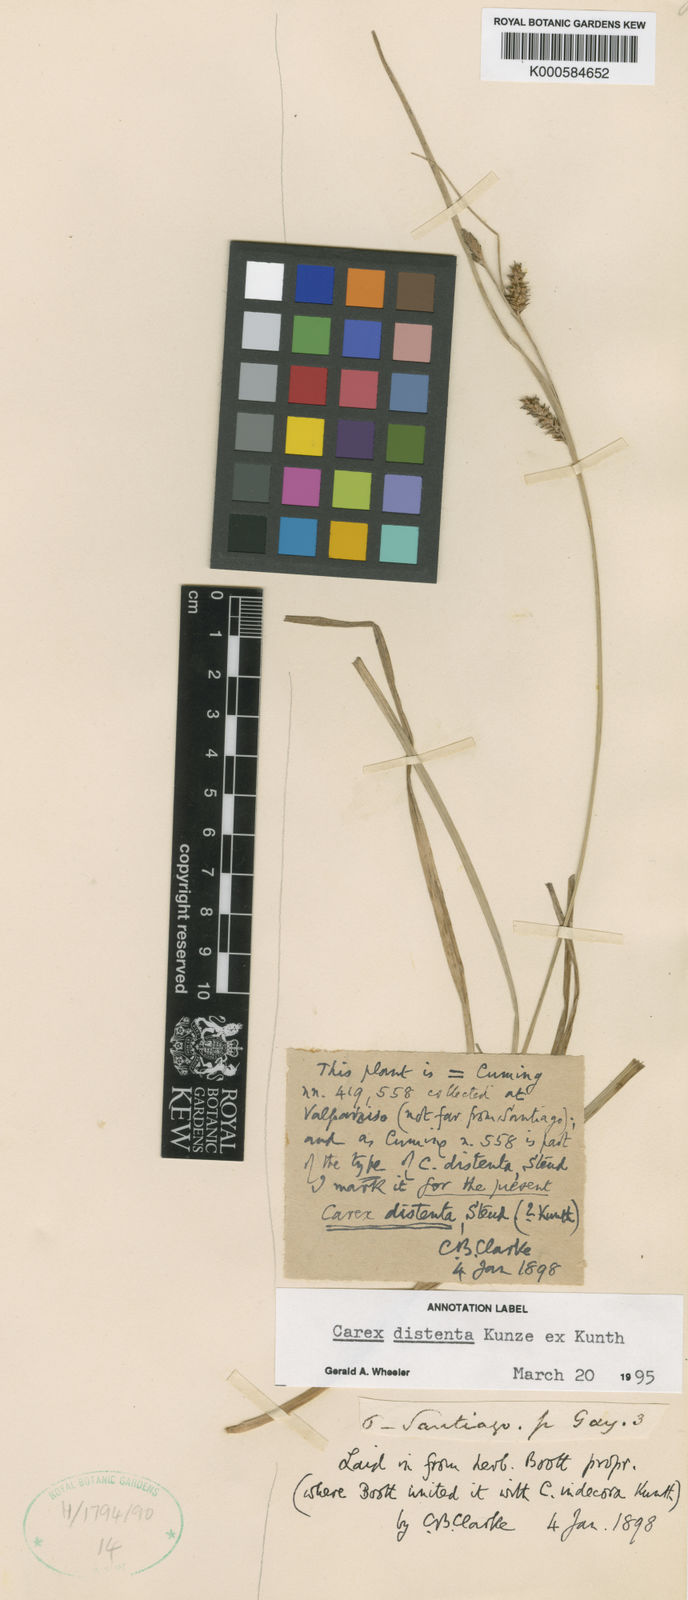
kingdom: Plantae
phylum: Tracheophyta
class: Liliopsida
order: Poales
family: Cyperaceae
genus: Carex
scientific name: Carex fuscula
